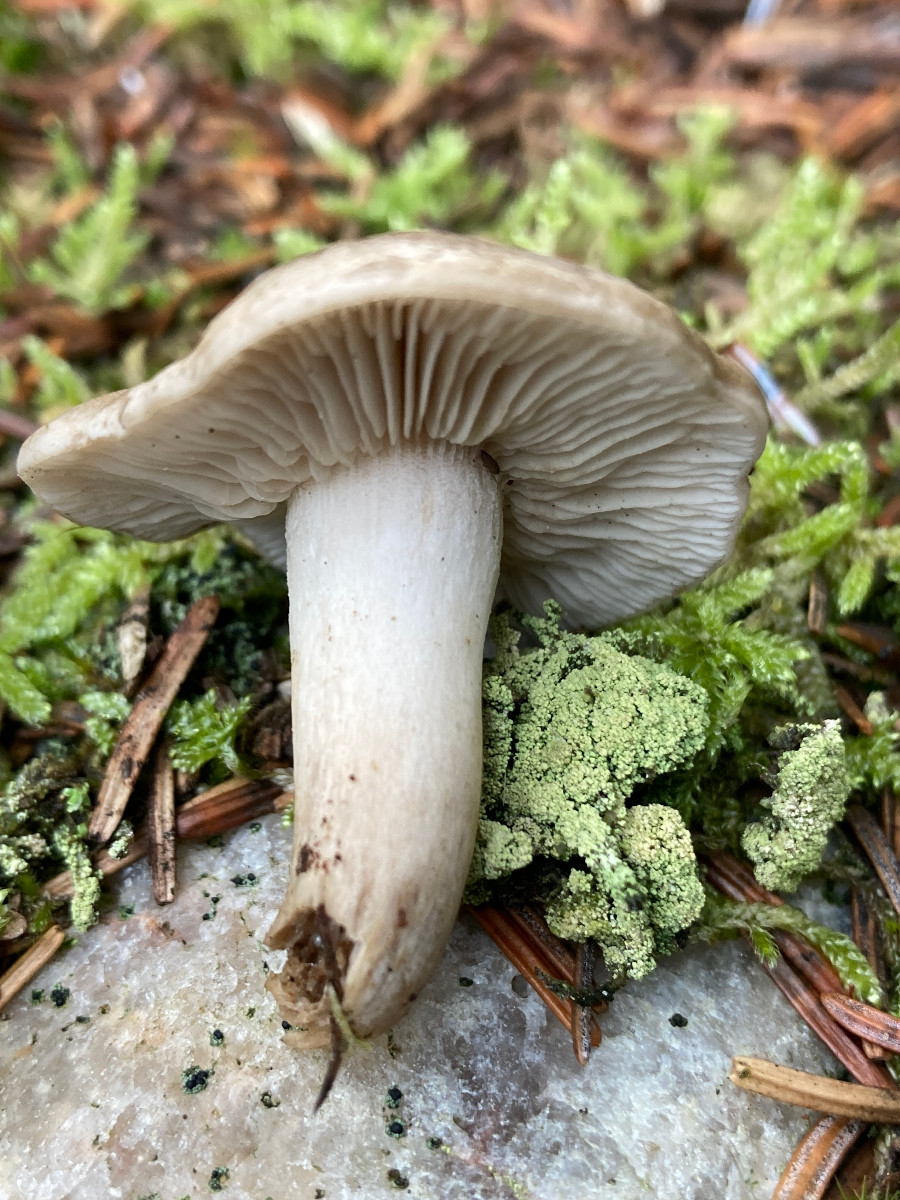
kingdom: Fungi
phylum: Basidiomycota
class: Agaricomycetes
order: Agaricales
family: Tricholomataceae
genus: Tricholoma
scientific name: Tricholoma
